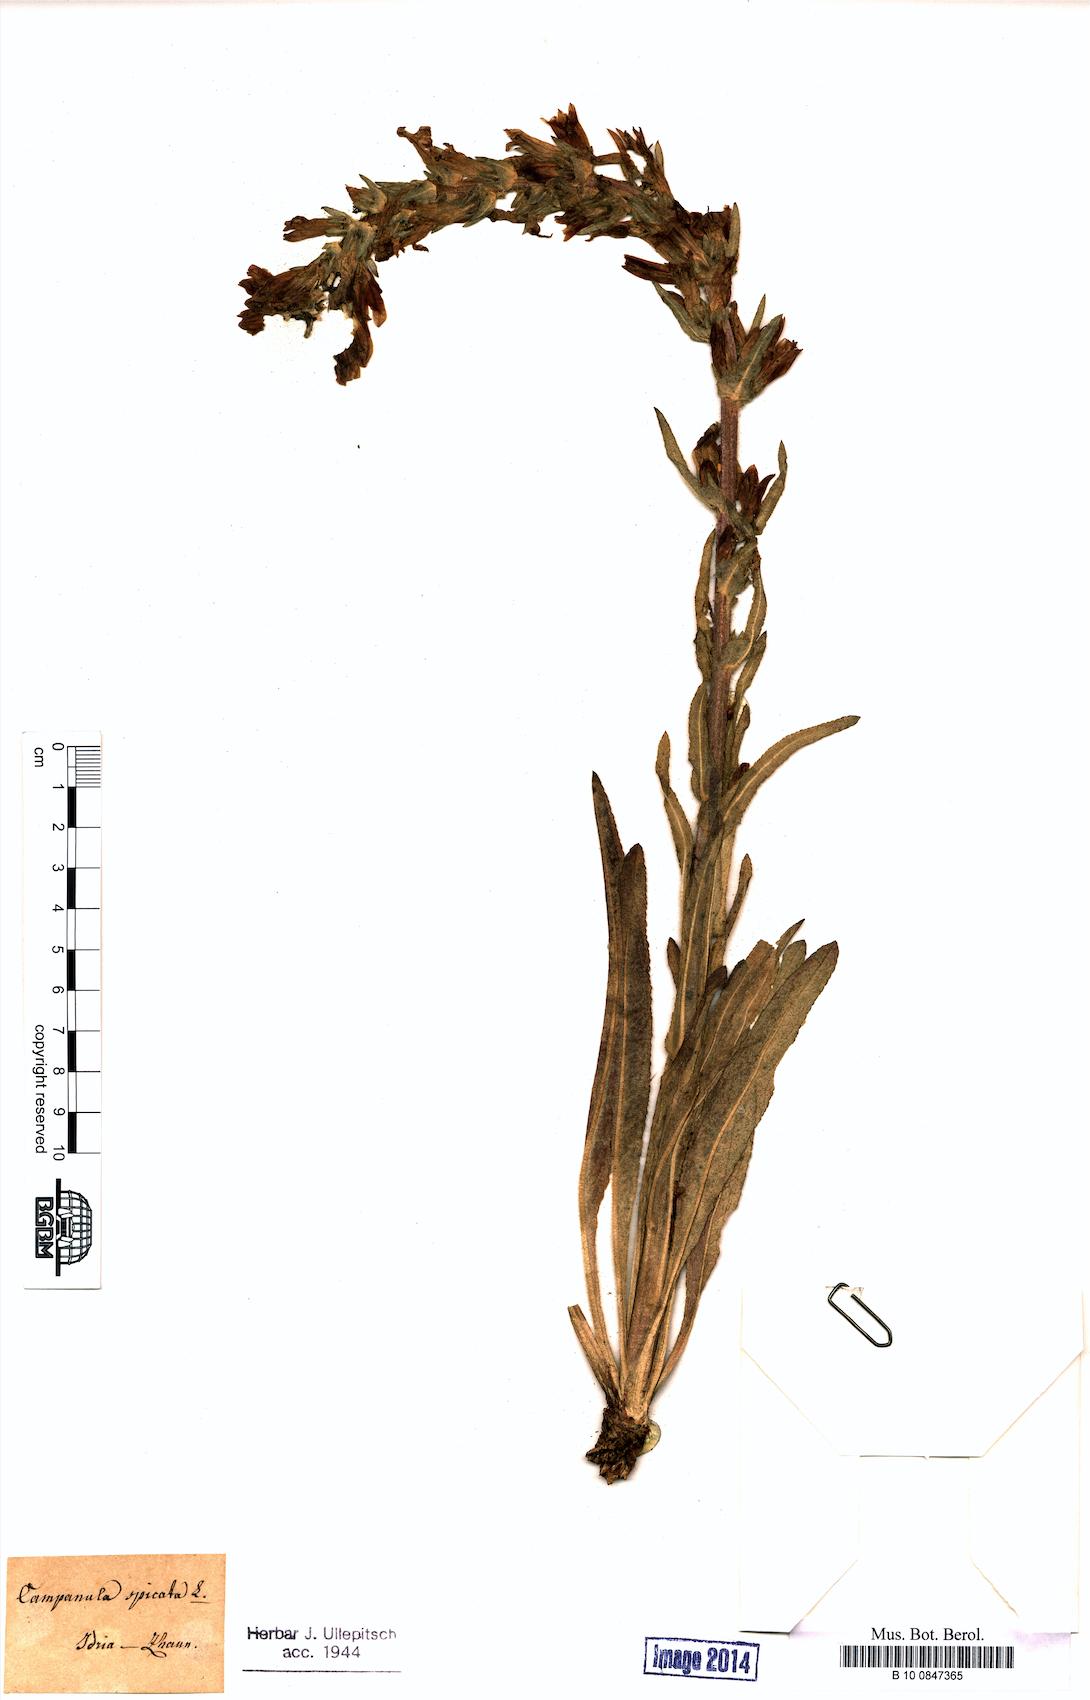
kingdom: Plantae
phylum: Tracheophyta
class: Magnoliopsida
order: Asterales
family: Campanulaceae
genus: Campanula
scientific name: Campanula spicata
